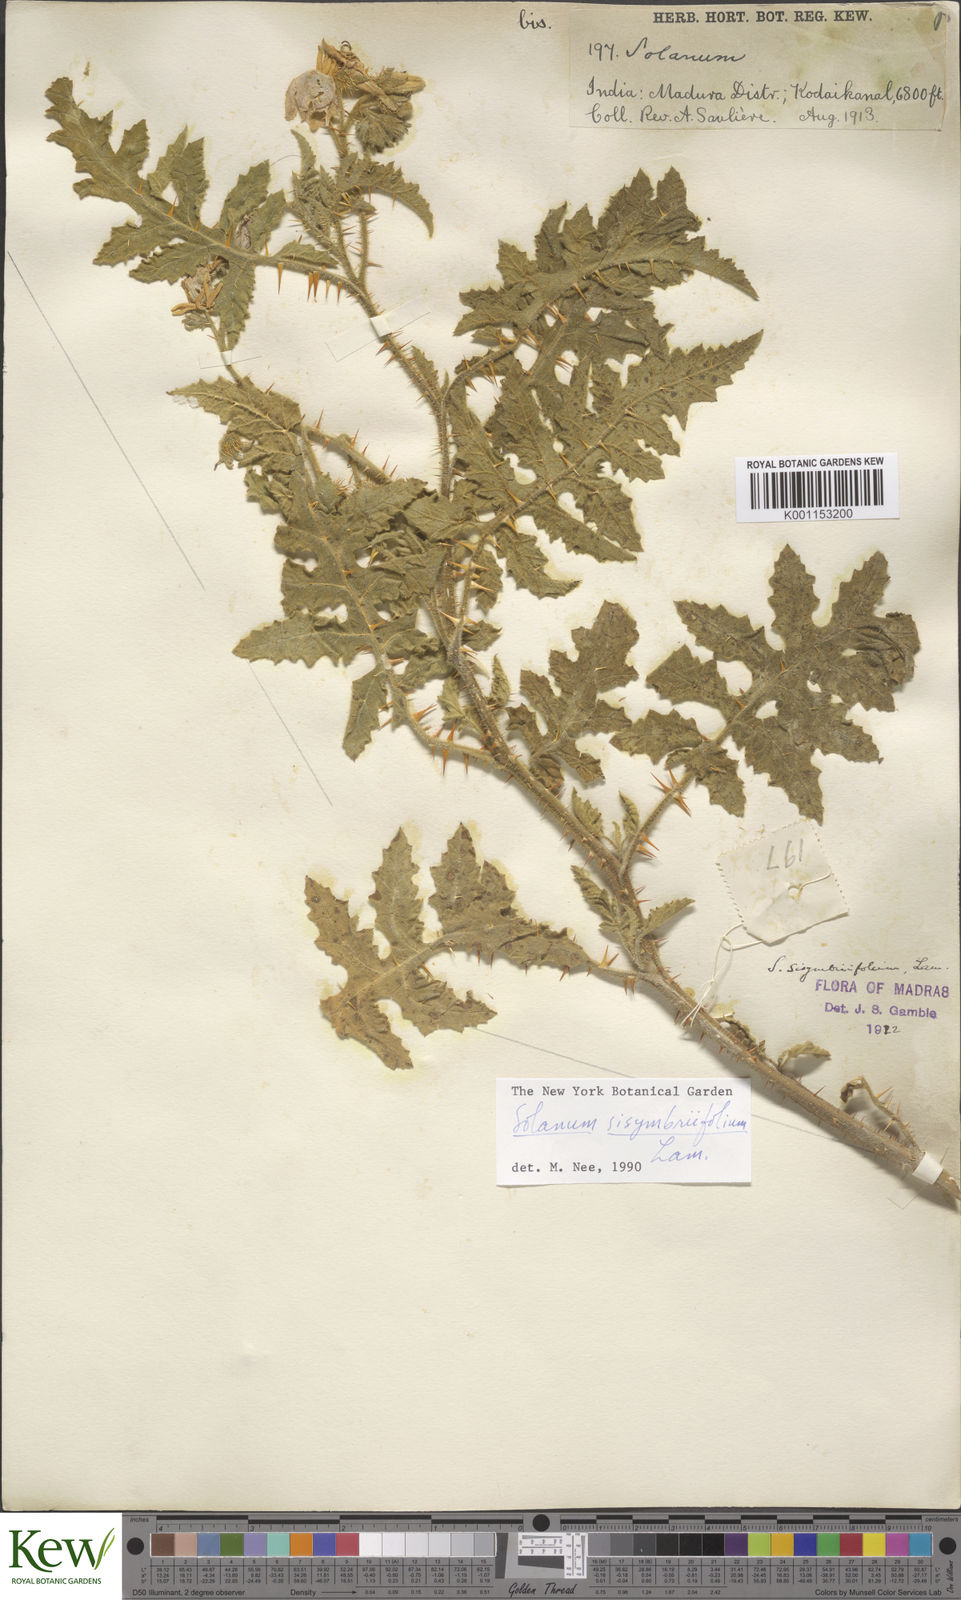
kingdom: Plantae
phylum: Tracheophyta
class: Magnoliopsida
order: Solanales
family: Solanaceae
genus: Solanum
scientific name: Solanum sisymbriifolium
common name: Red buffalo-bur
